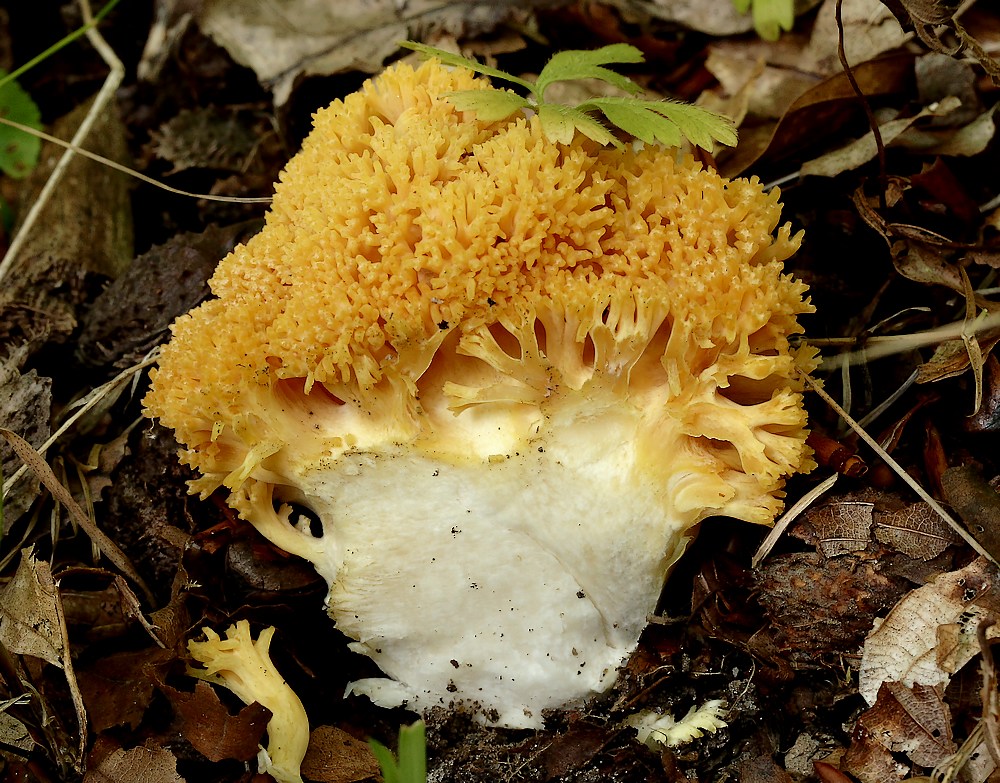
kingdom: Fungi
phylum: Basidiomycota
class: Agaricomycetes
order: Gomphales
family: Gomphaceae
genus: Ramaria
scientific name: Ramaria krieglsteineri
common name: smalsporet koralsvamp
